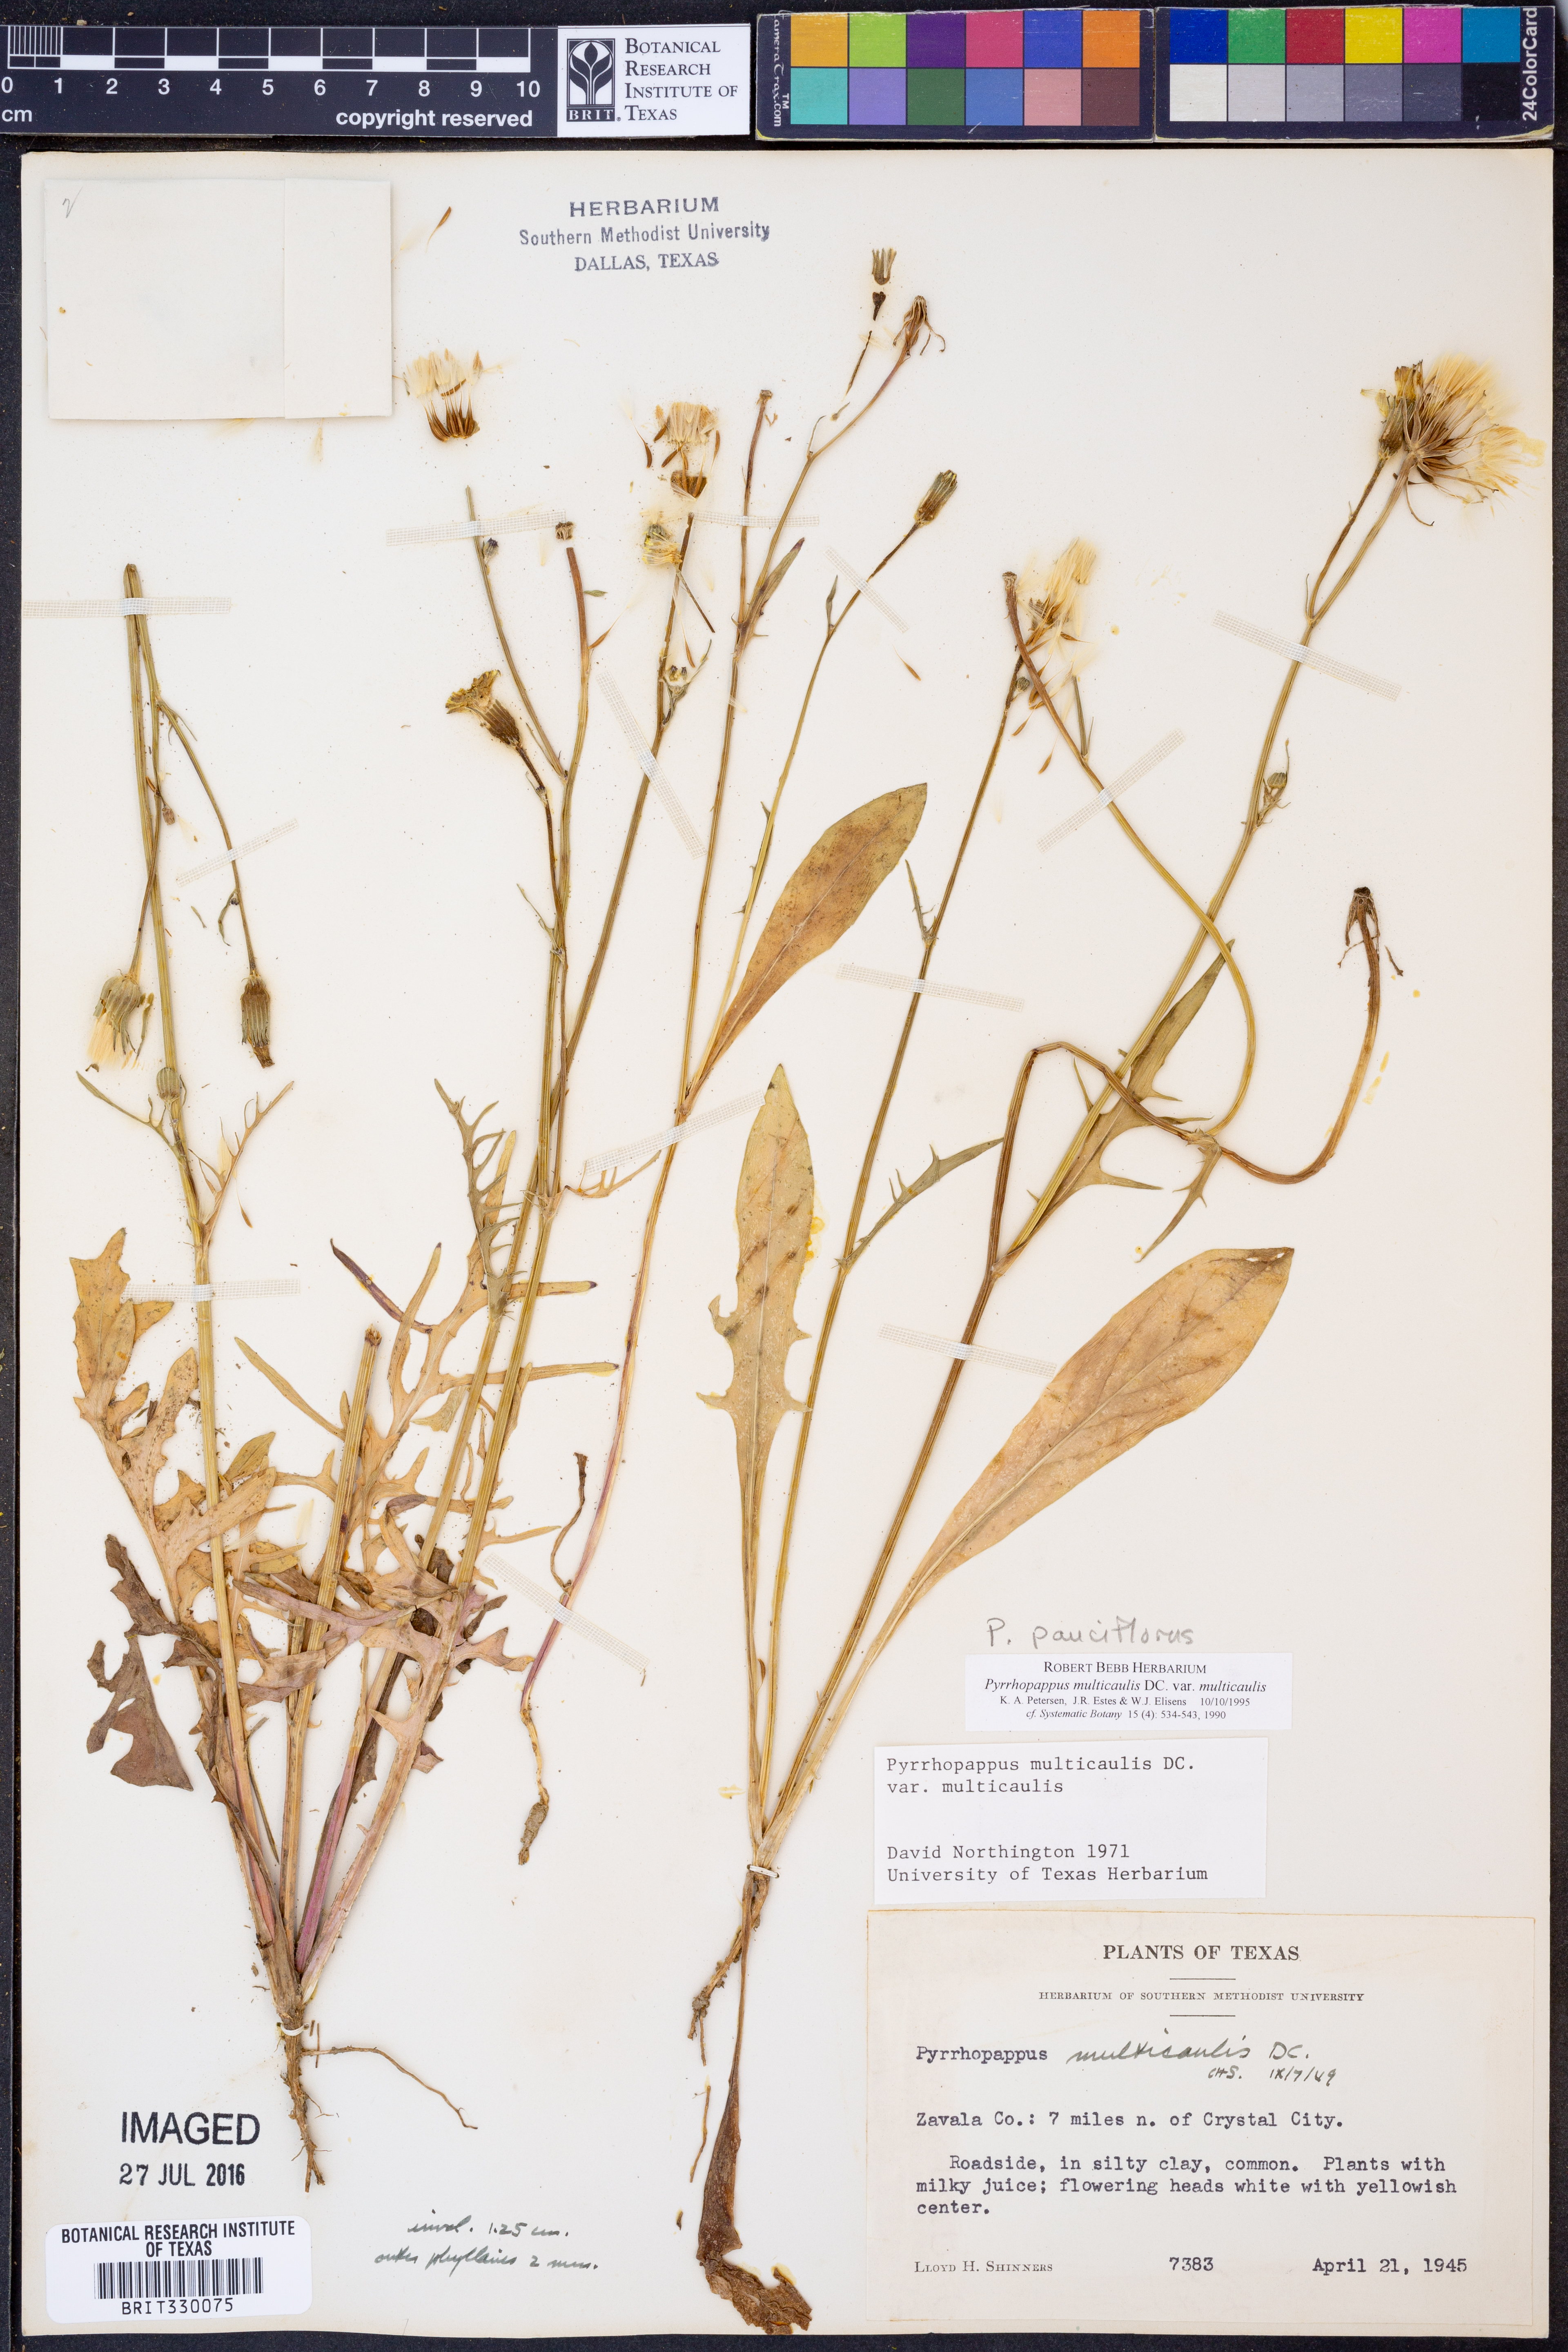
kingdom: Plantae
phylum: Tracheophyta
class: Magnoliopsida
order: Asterales
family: Asteraceae
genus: Pyrrhopappus
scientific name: Pyrrhopappus pauciflorus
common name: Texas false dandelion
